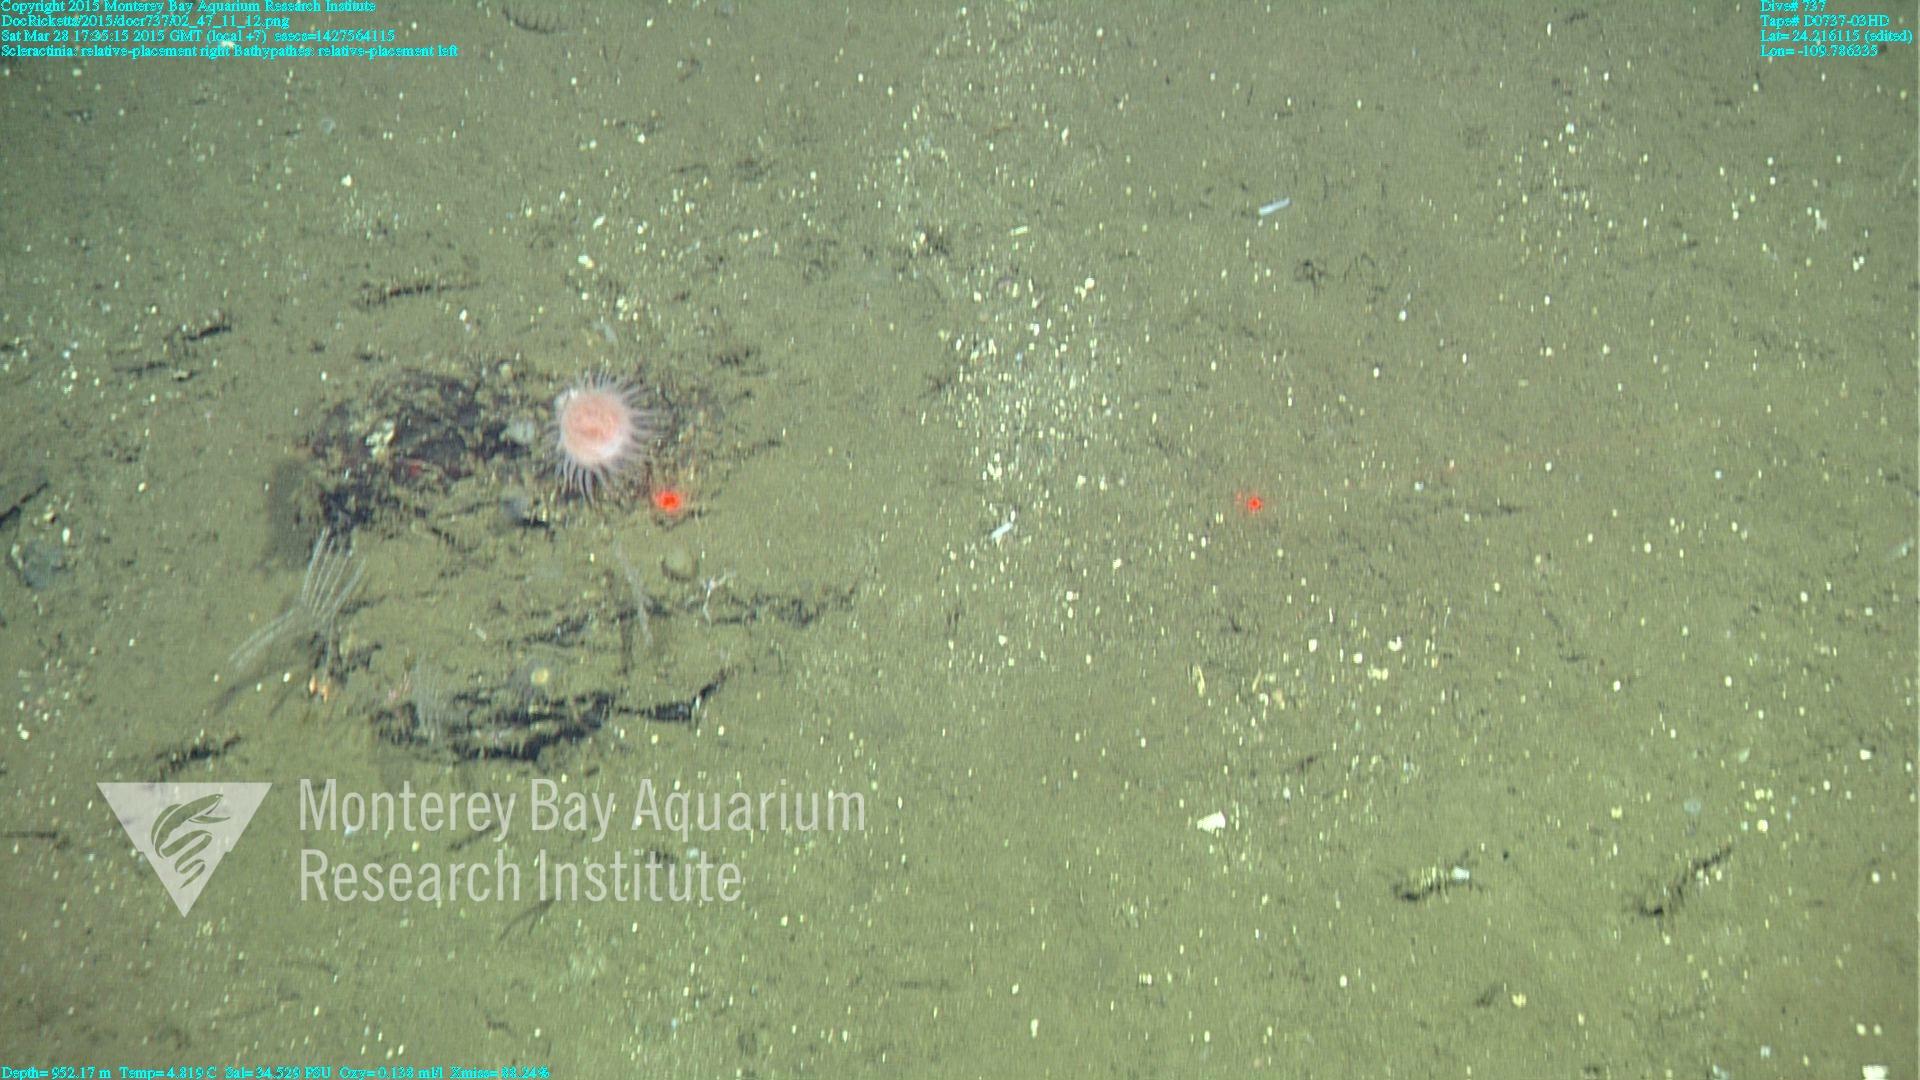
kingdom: Animalia
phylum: Cnidaria
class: Anthozoa
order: Antipatharia
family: Schizopathidae
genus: Bathypathes
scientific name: Bathypathes
